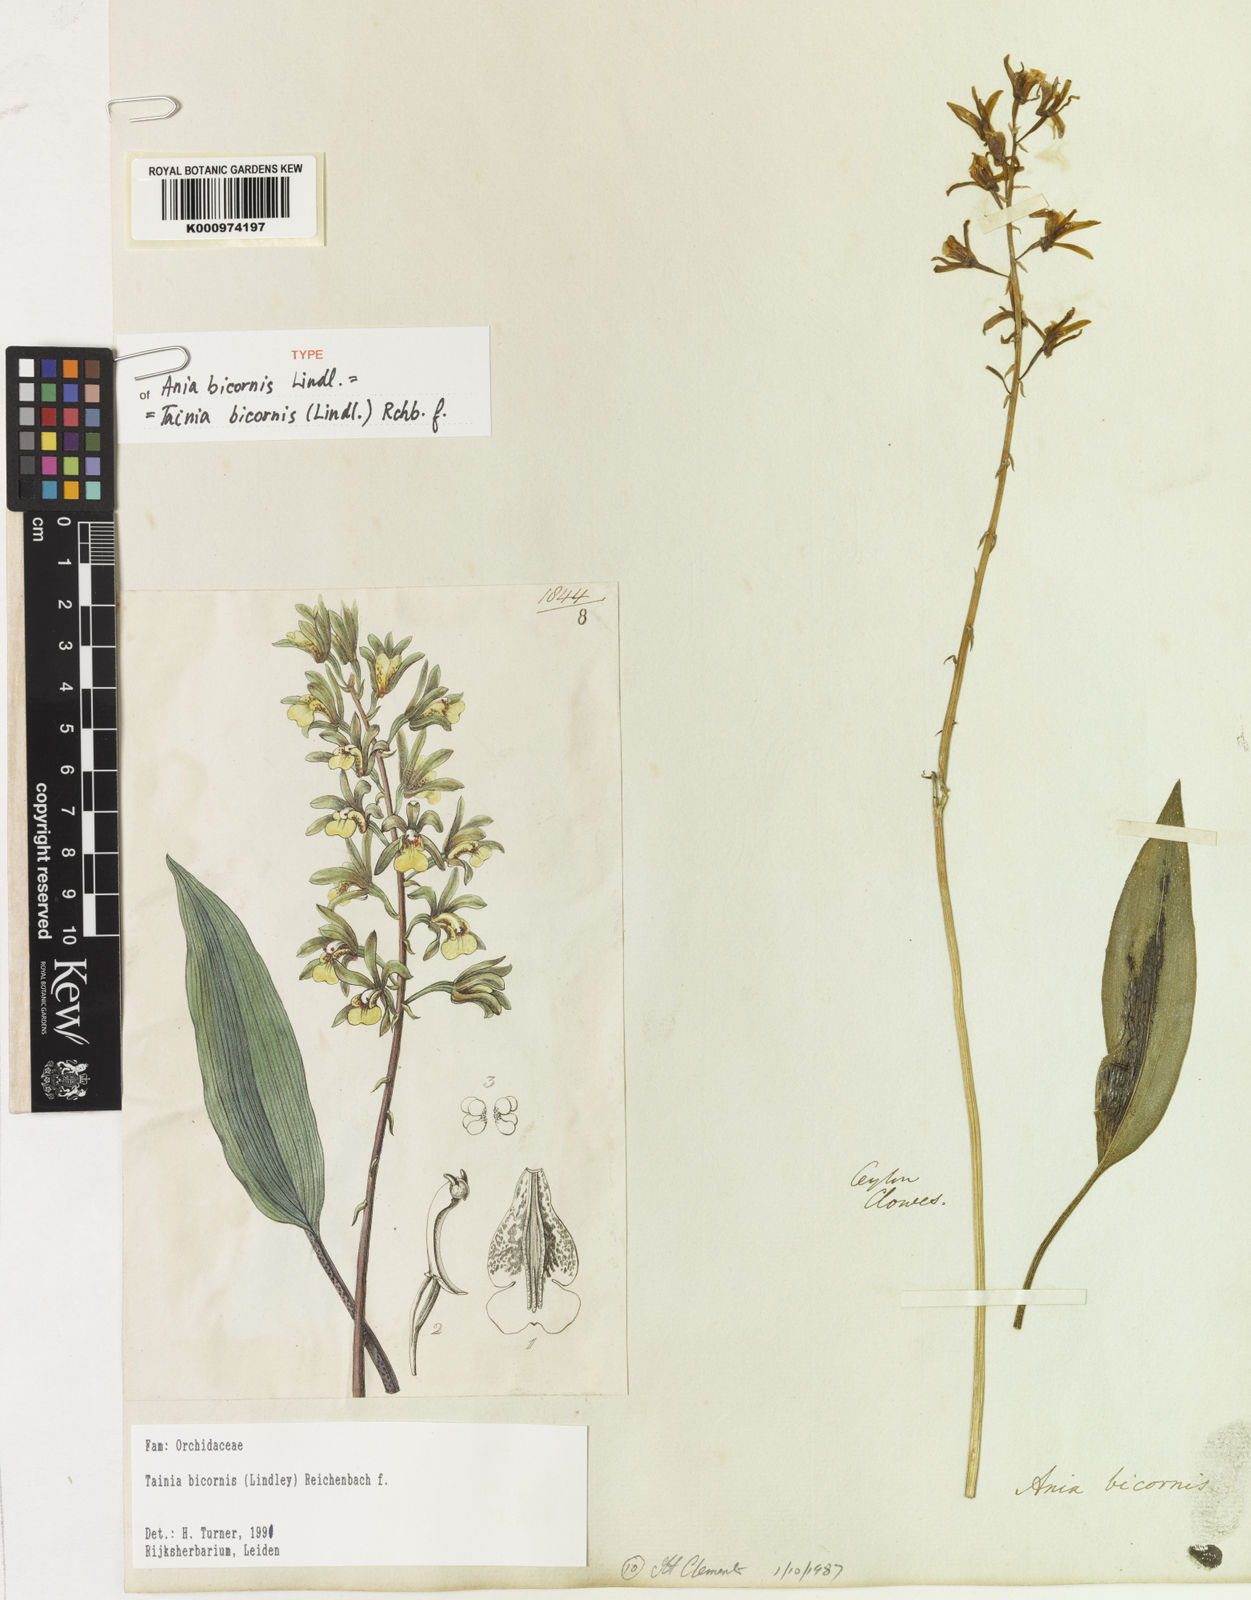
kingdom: Plantae
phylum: Tracheophyta
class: Liliopsida
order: Asparagales
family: Orchidaceae
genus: Tainia
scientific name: Tainia bicornis
